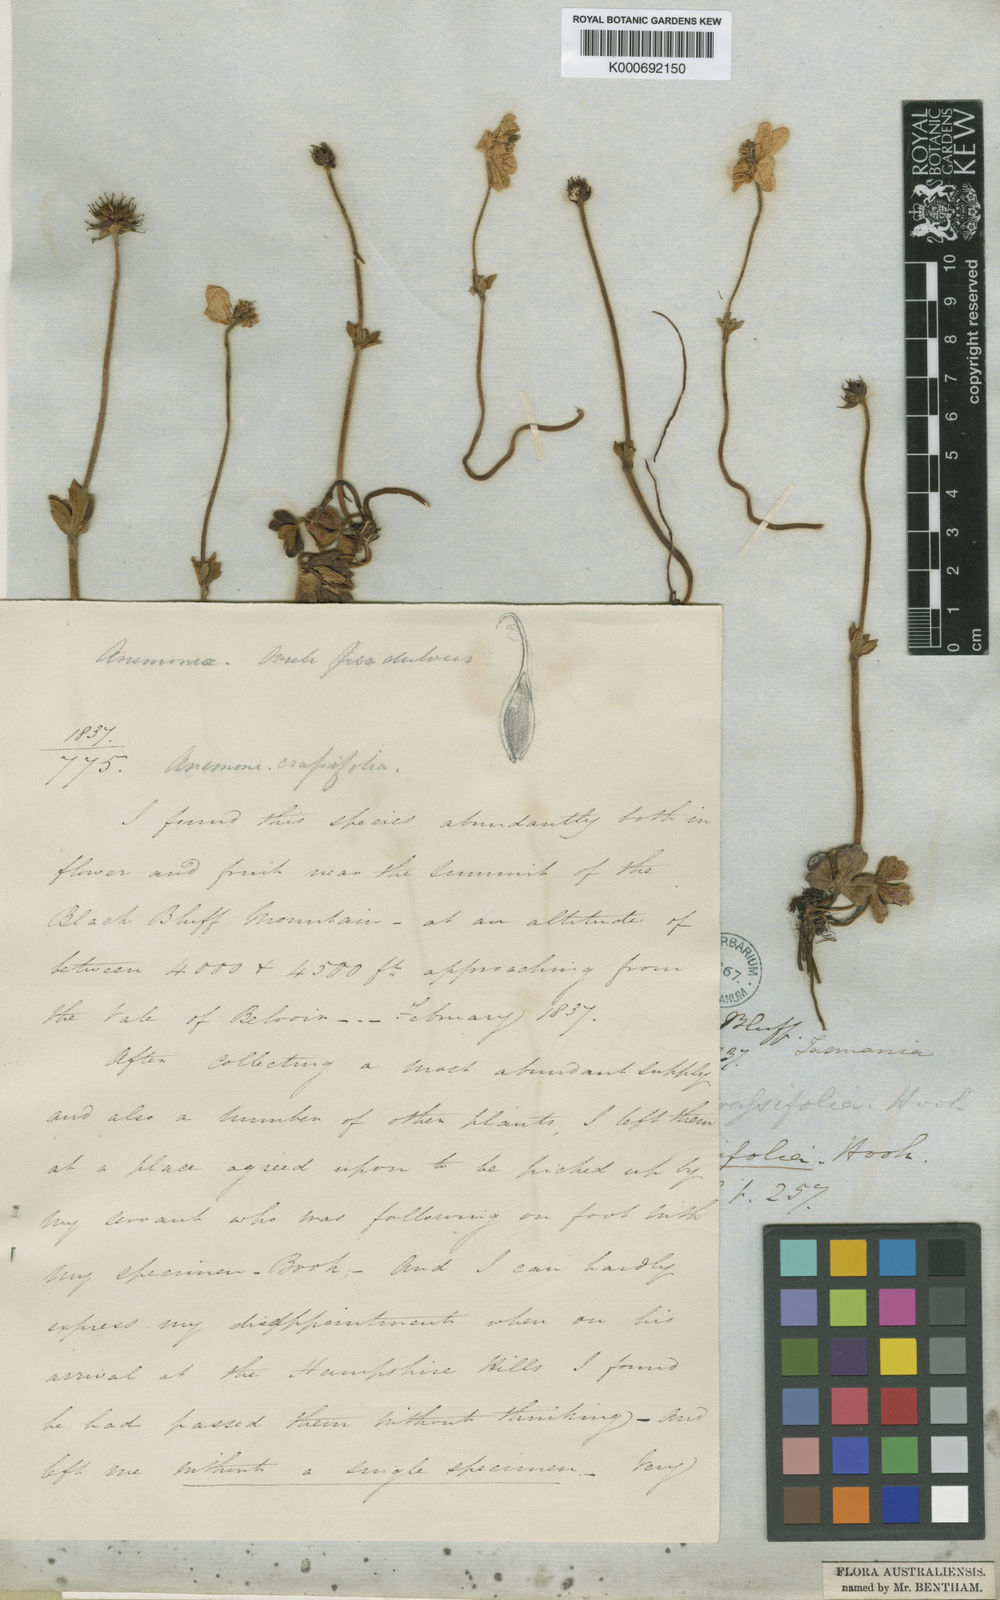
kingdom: Plantae
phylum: Tracheophyta
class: Magnoliopsida
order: Ranunculales
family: Ranunculaceae
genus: Knowltonia
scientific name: Knowltonia crassifolia
